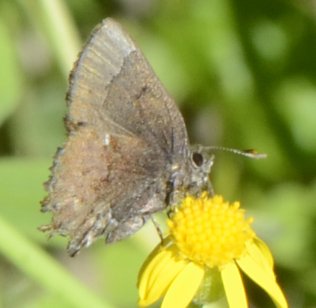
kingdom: Animalia
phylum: Arthropoda
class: Insecta
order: Lepidoptera
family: Lycaenidae
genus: Incisalia
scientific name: Incisalia henrici
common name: Henry's Elfin
